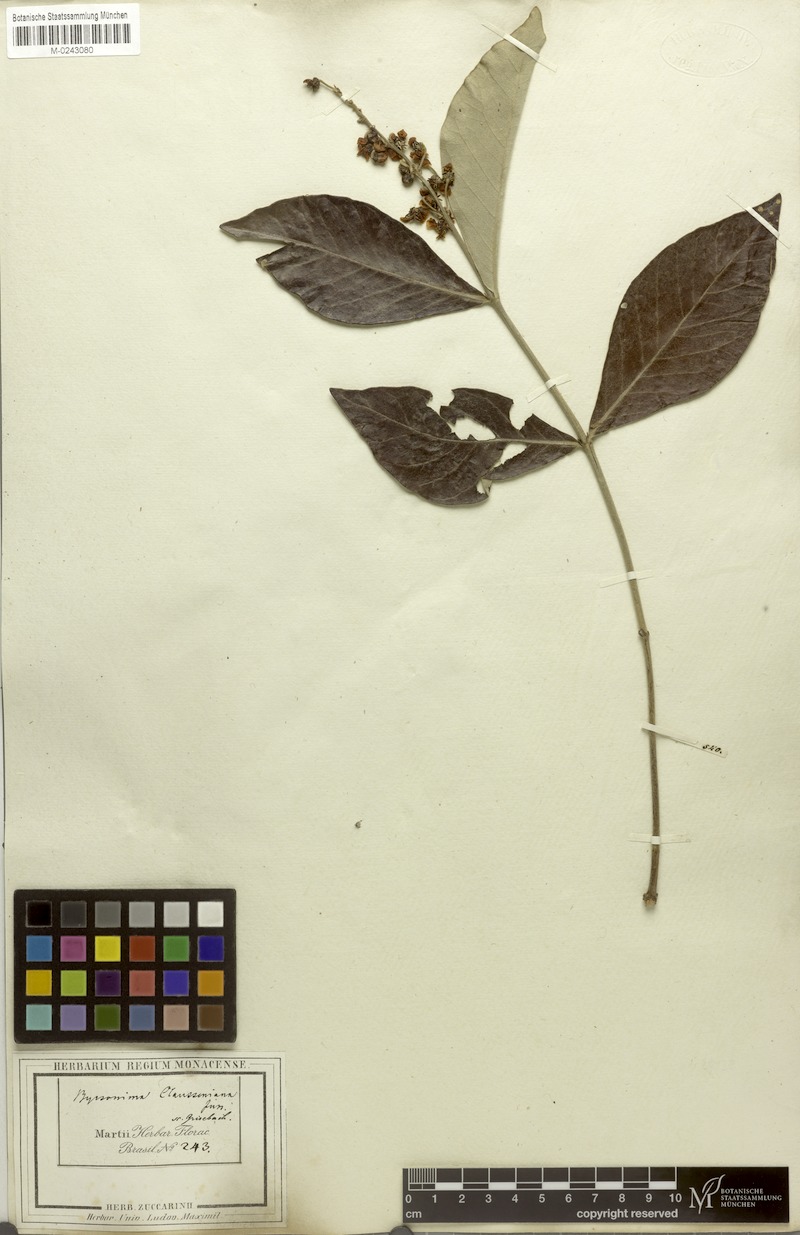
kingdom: Plantae
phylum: Tracheophyta
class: Magnoliopsida
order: Malpighiales
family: Malpighiaceae
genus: Byrsonima
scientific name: Byrsonima clausseniana
